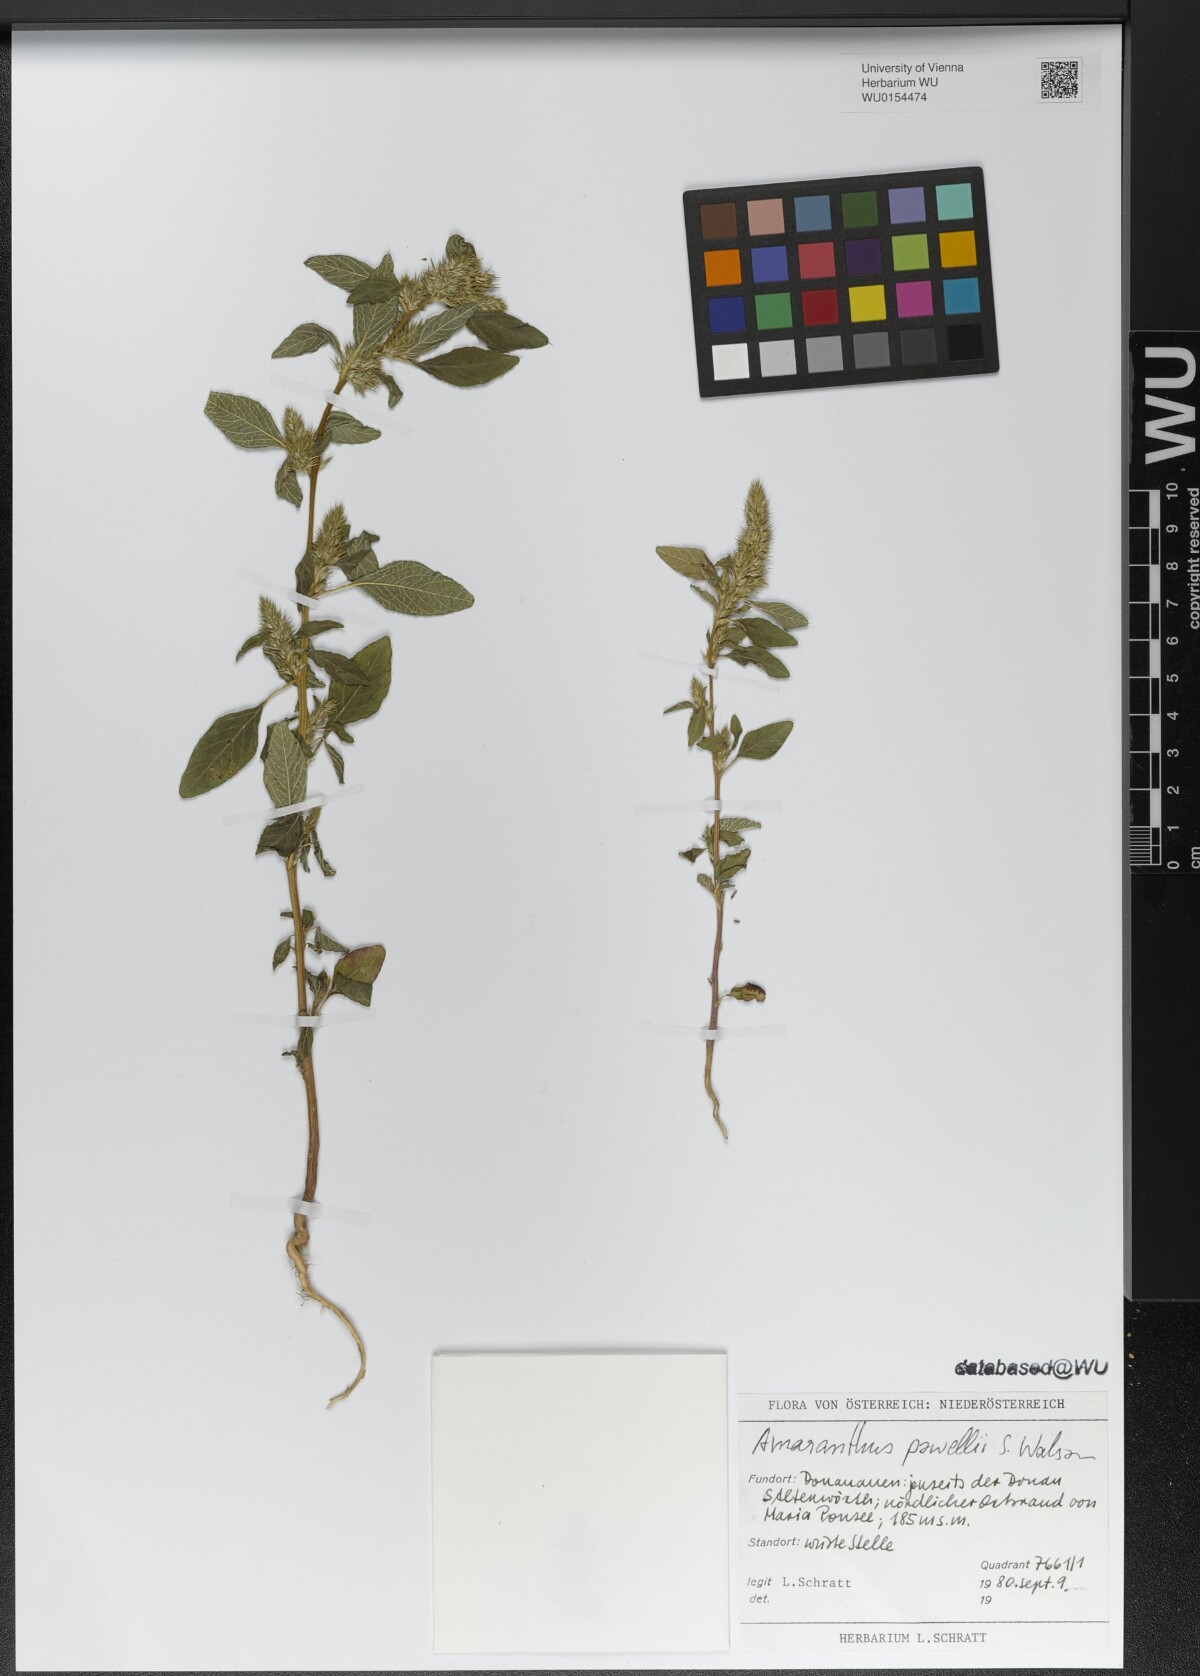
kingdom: Plantae
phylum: Tracheophyta
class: Magnoliopsida
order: Caryophyllales
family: Amaranthaceae
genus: Amaranthus
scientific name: Amaranthus powellii
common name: Powell's amaranth
